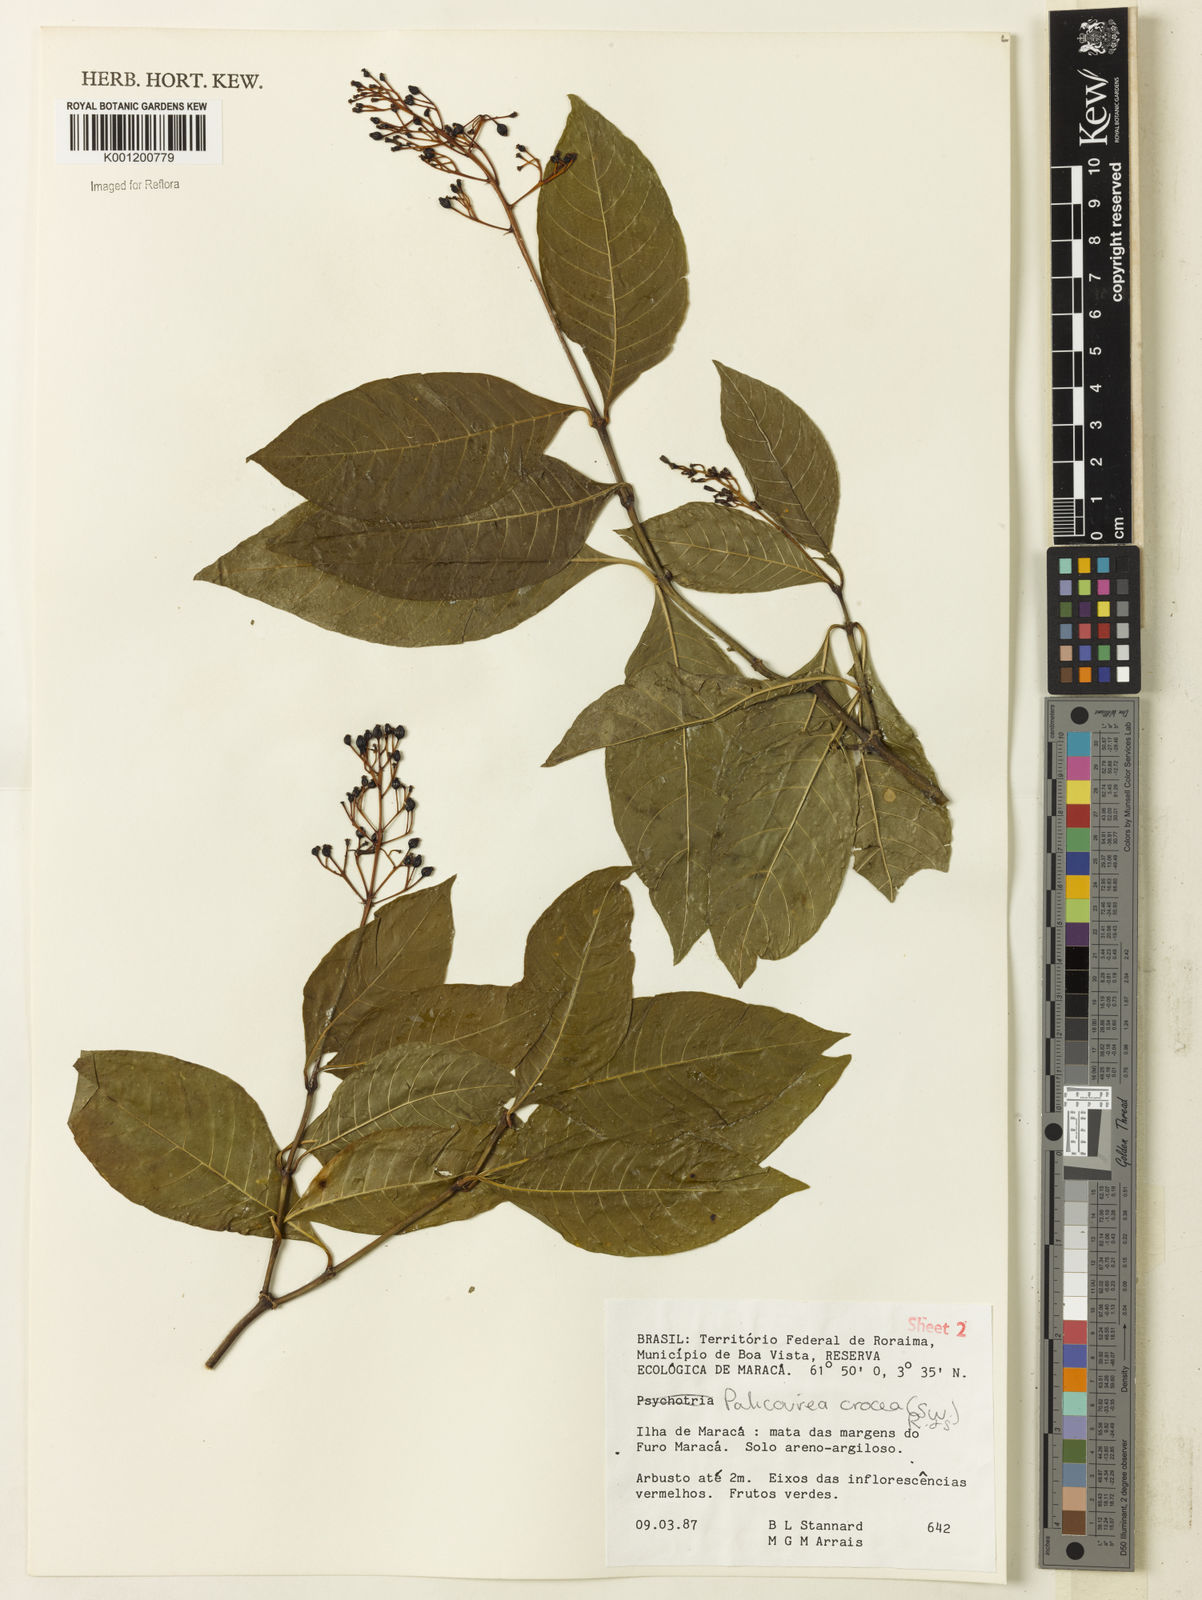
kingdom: Plantae
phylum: Tracheophyta
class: Magnoliopsida
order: Gentianales
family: Rubiaceae
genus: Palicourea
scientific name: Palicourea crocea
